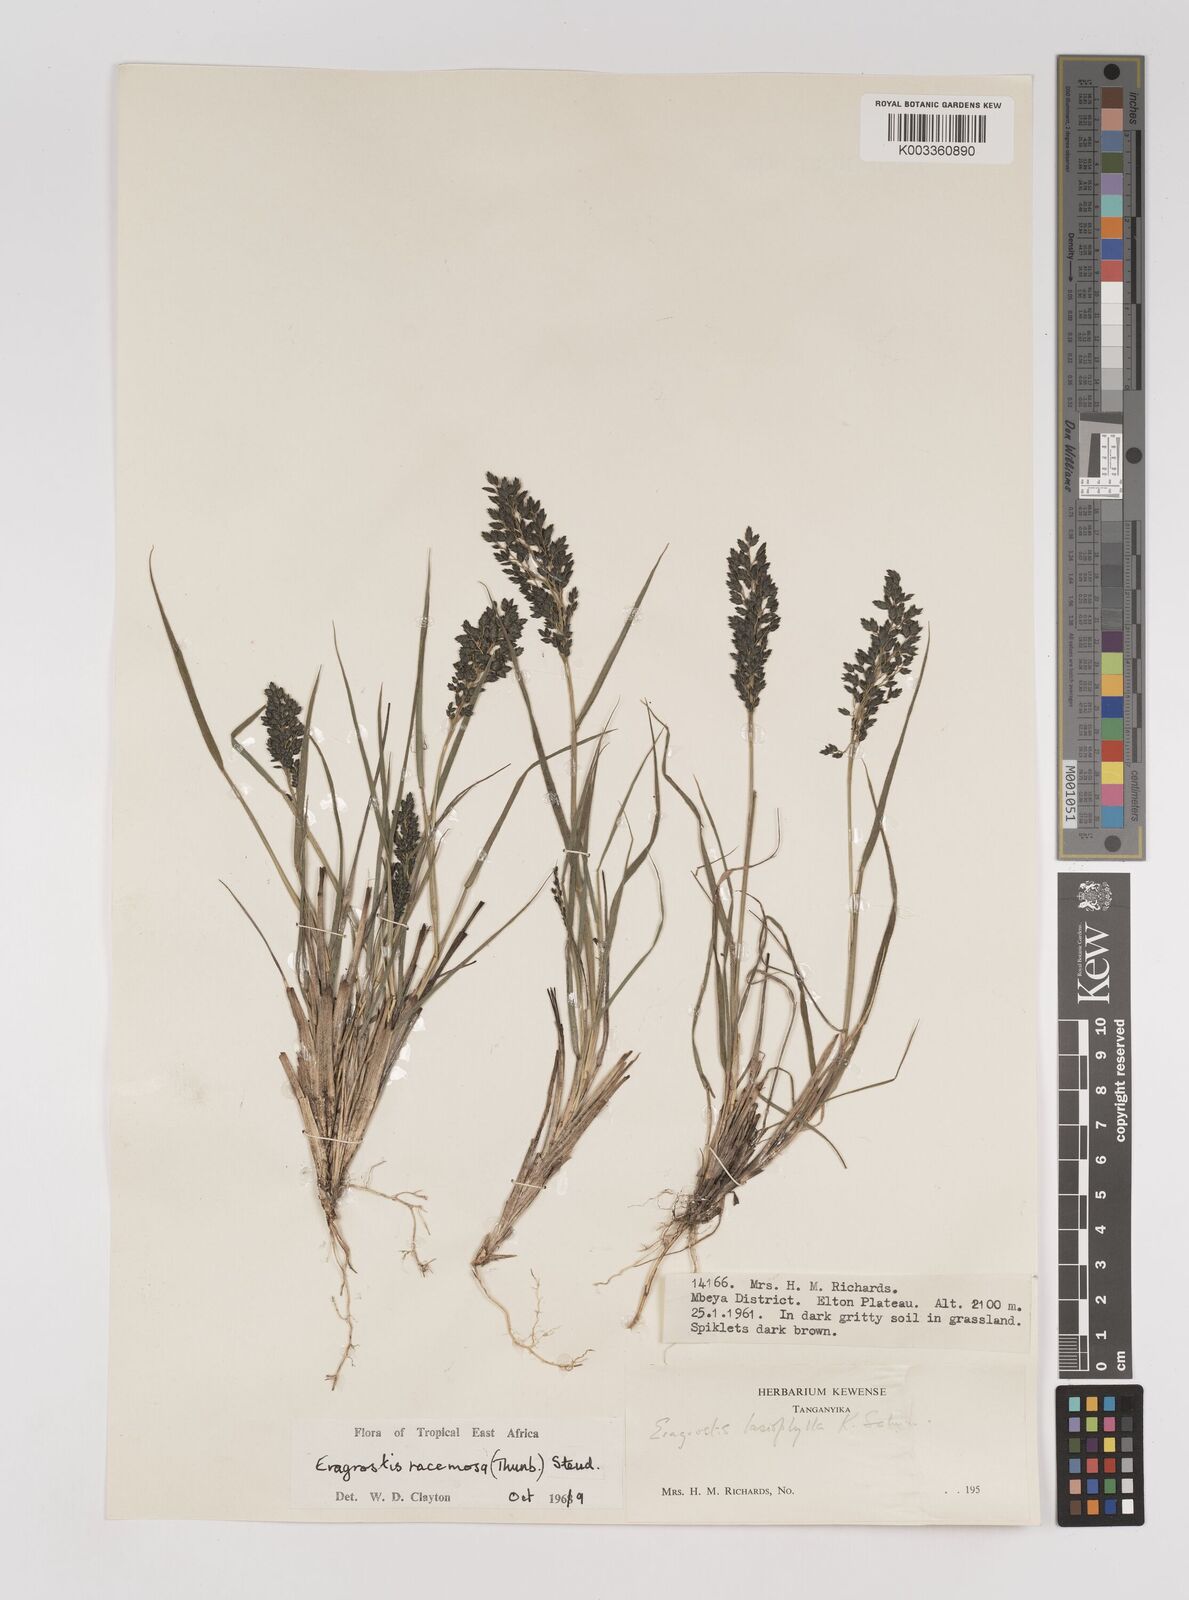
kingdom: Plantae
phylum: Tracheophyta
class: Liliopsida
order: Poales
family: Poaceae
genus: Eragrostis
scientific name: Eragrostis racemosa
